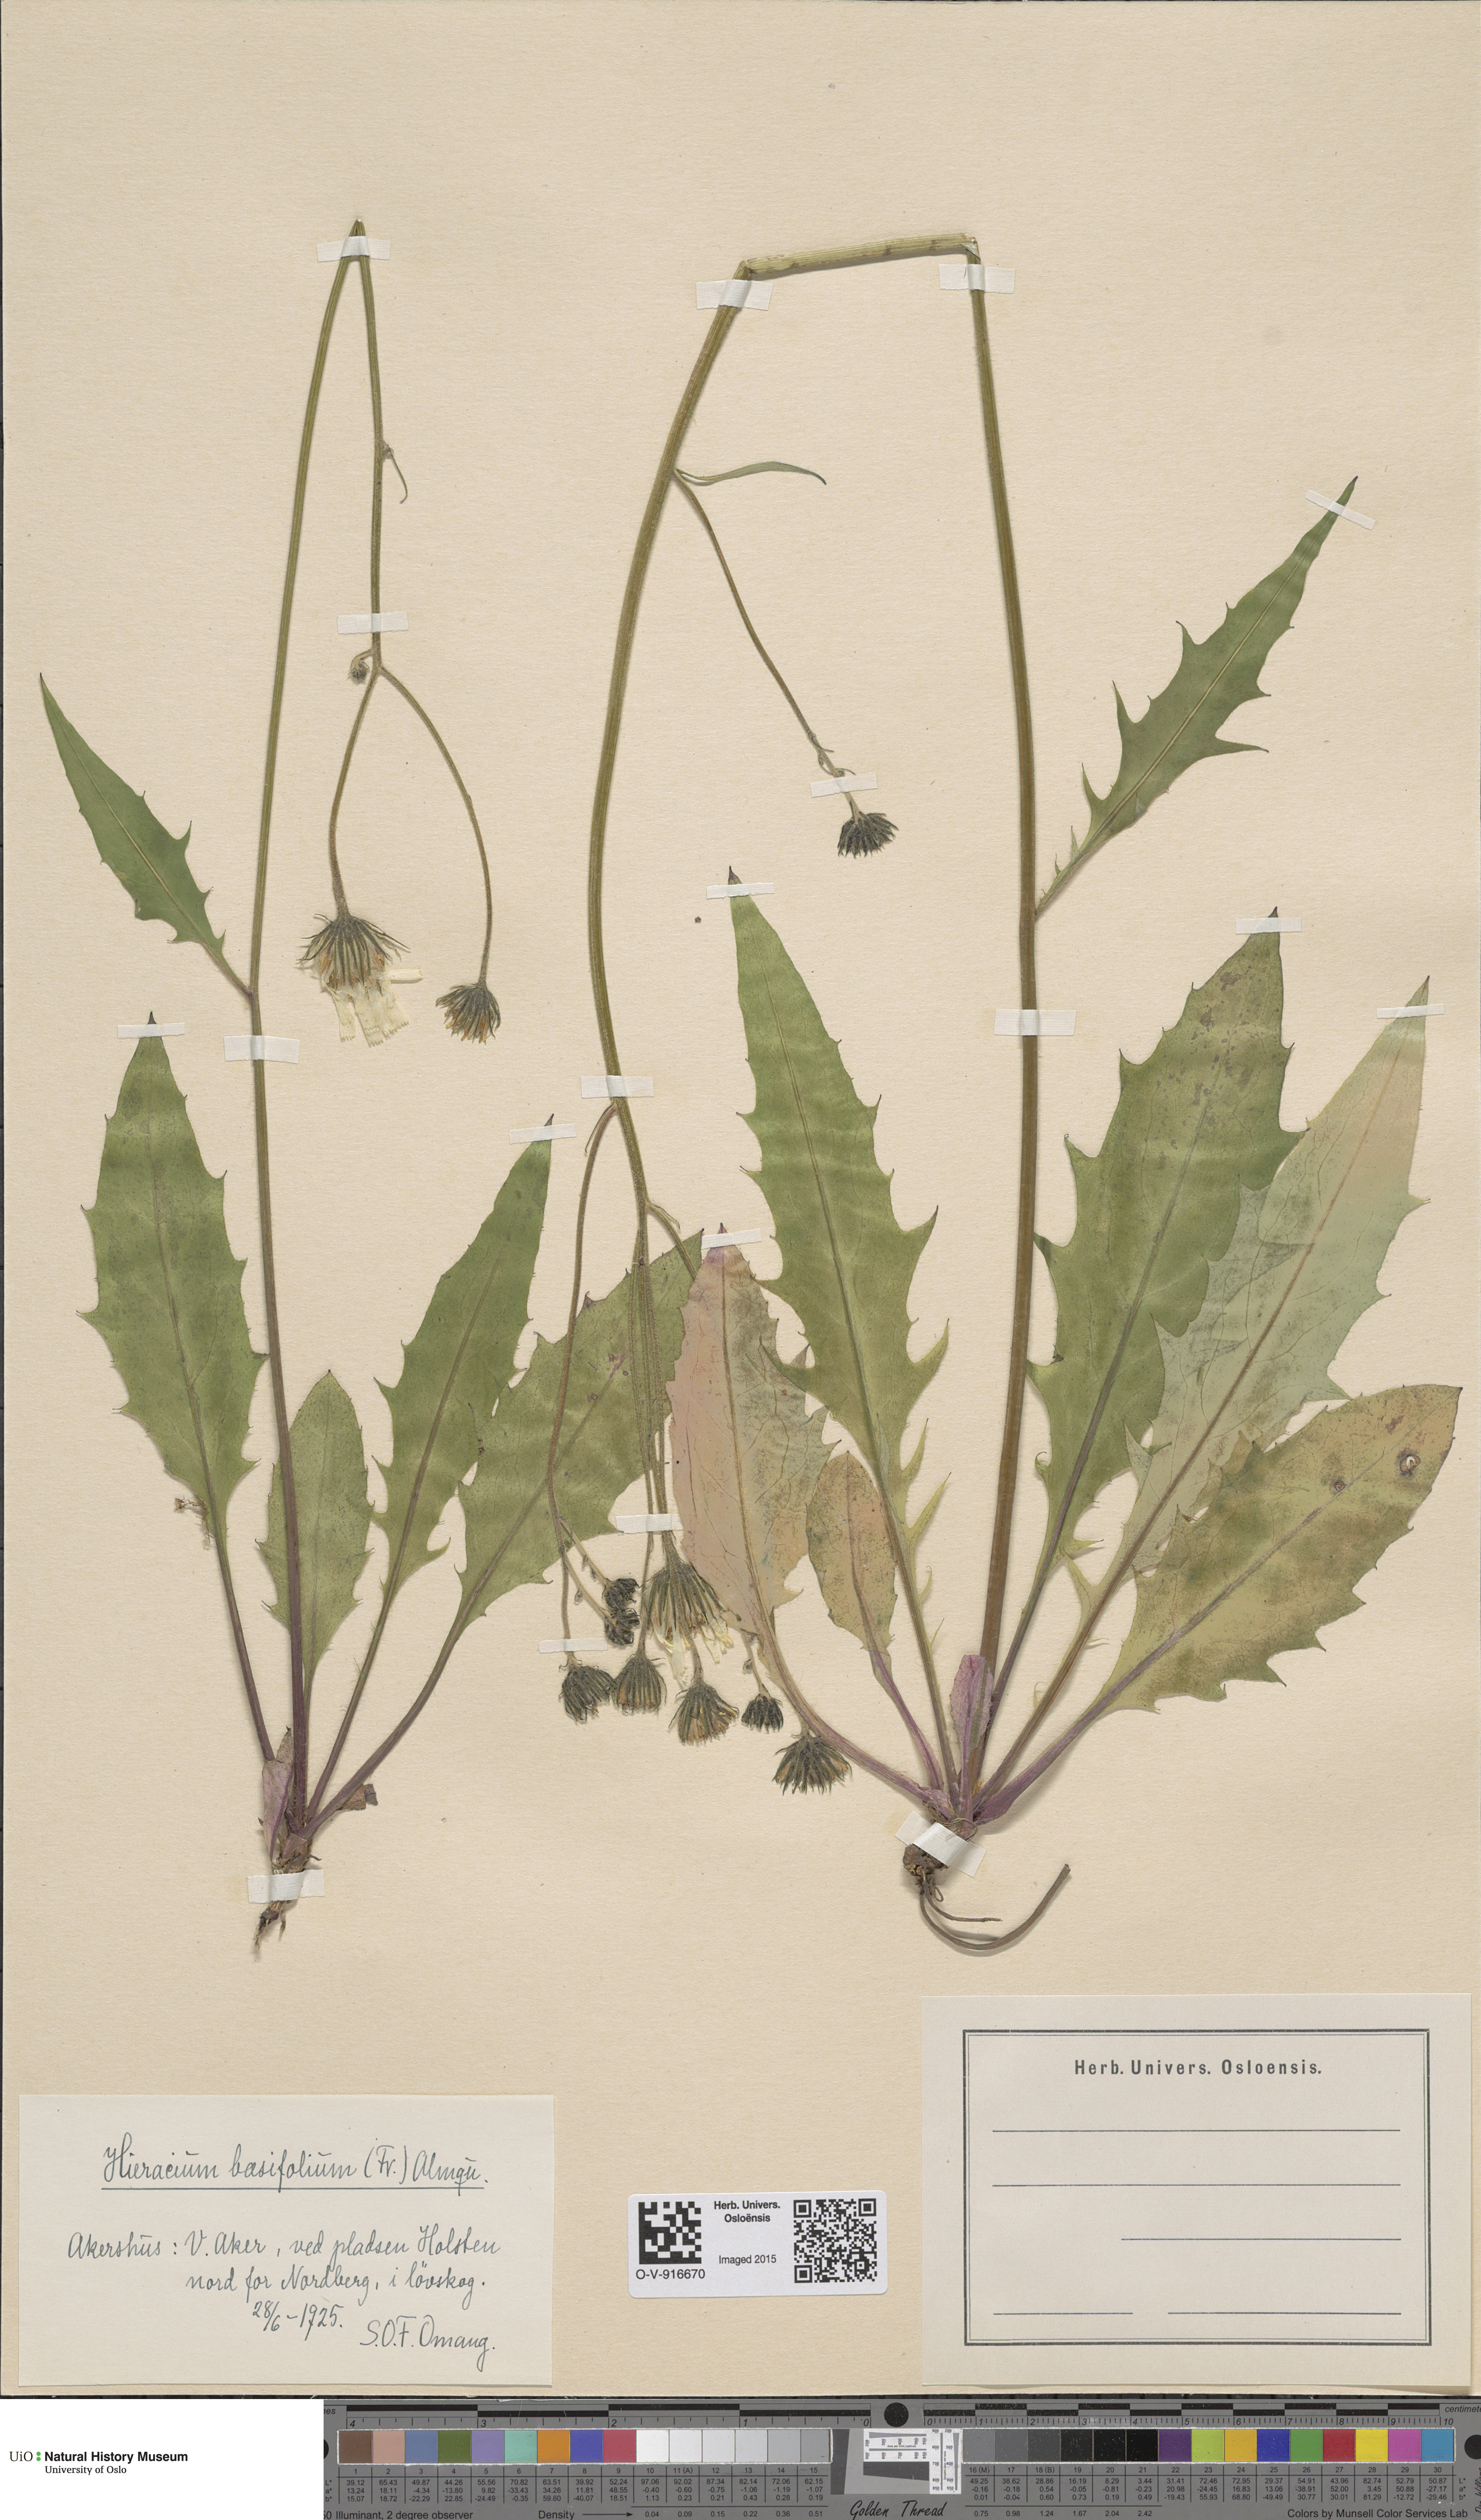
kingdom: Plantae
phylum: Tracheophyta
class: Magnoliopsida
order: Asterales
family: Asteraceae
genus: Hieracium
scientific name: Hieracium basifolium
